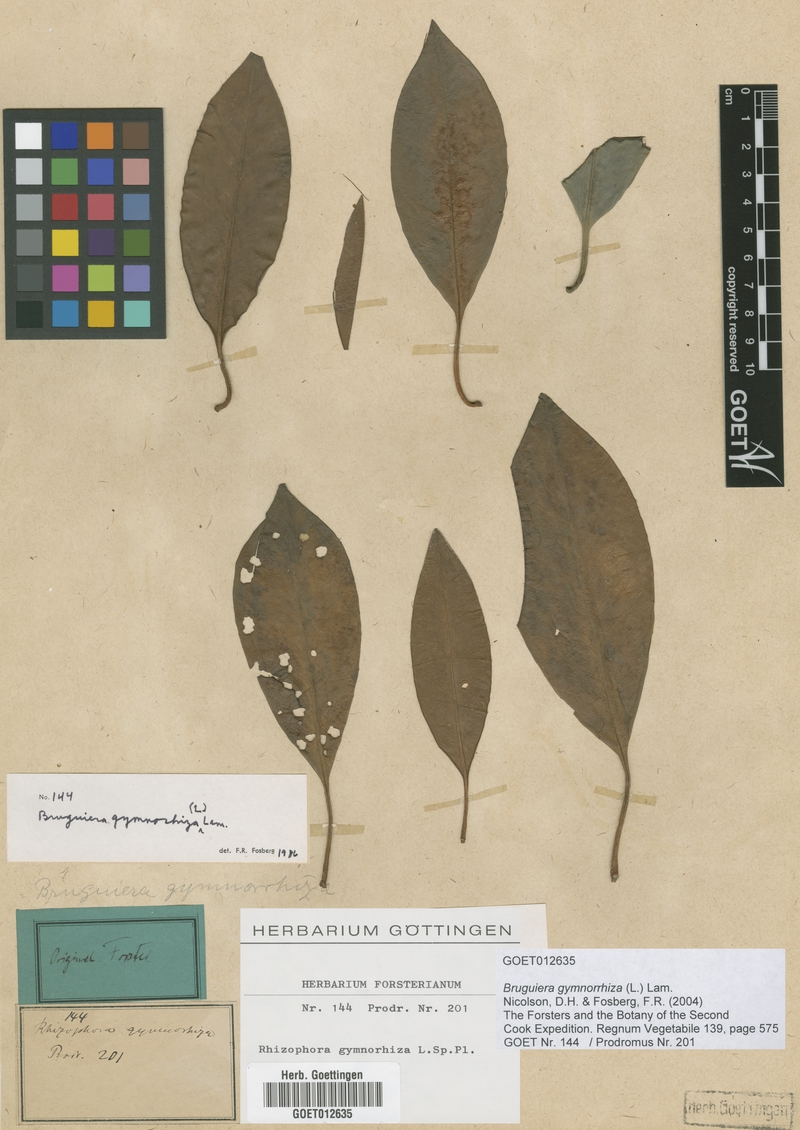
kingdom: Plantae
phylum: Tracheophyta
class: Magnoliopsida
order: Malpighiales
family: Rhizophoraceae
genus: Bruguiera
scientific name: Bruguiera gymnorhiza
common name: Oriental mangrove
